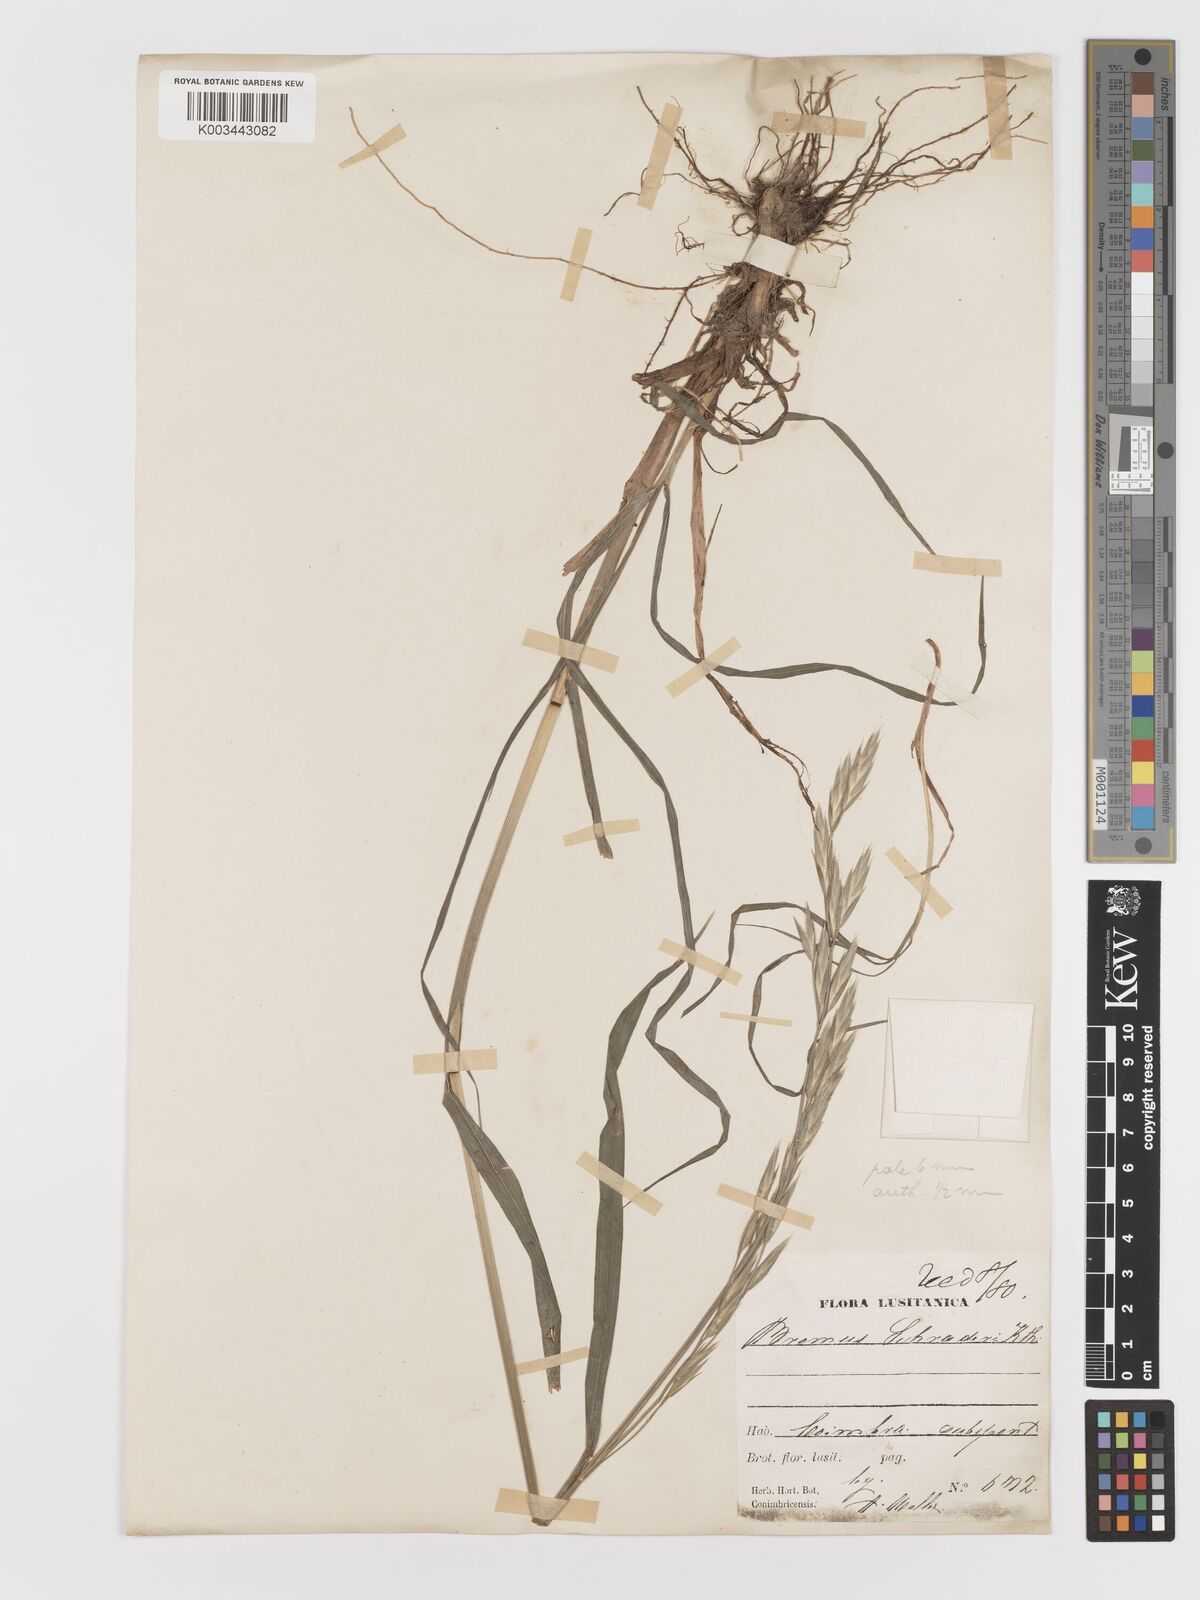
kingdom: Plantae
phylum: Tracheophyta
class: Liliopsida
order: Poales
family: Poaceae
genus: Bromus
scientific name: Bromus catharticus
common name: Rescuegrass
